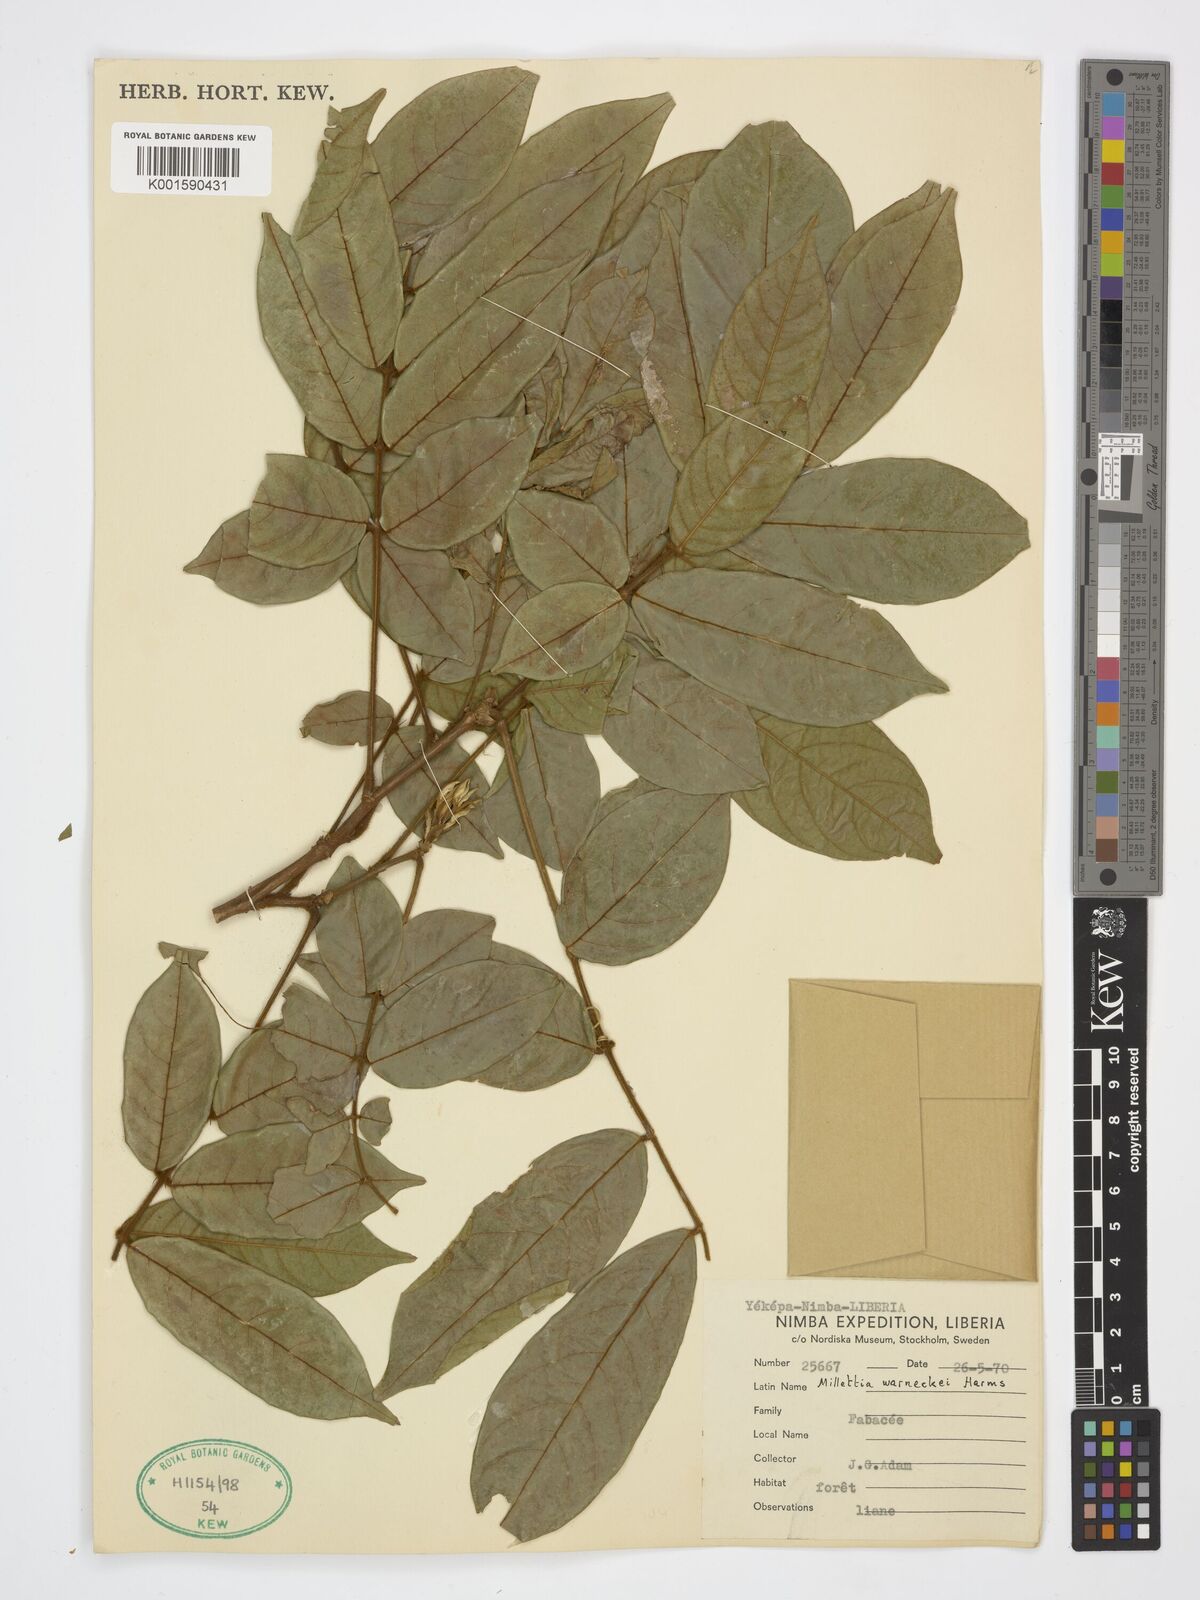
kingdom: Plantae
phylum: Tracheophyta
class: Magnoliopsida
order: Fabales
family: Fabaceae
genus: Millettia
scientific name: Millettia warneckei
